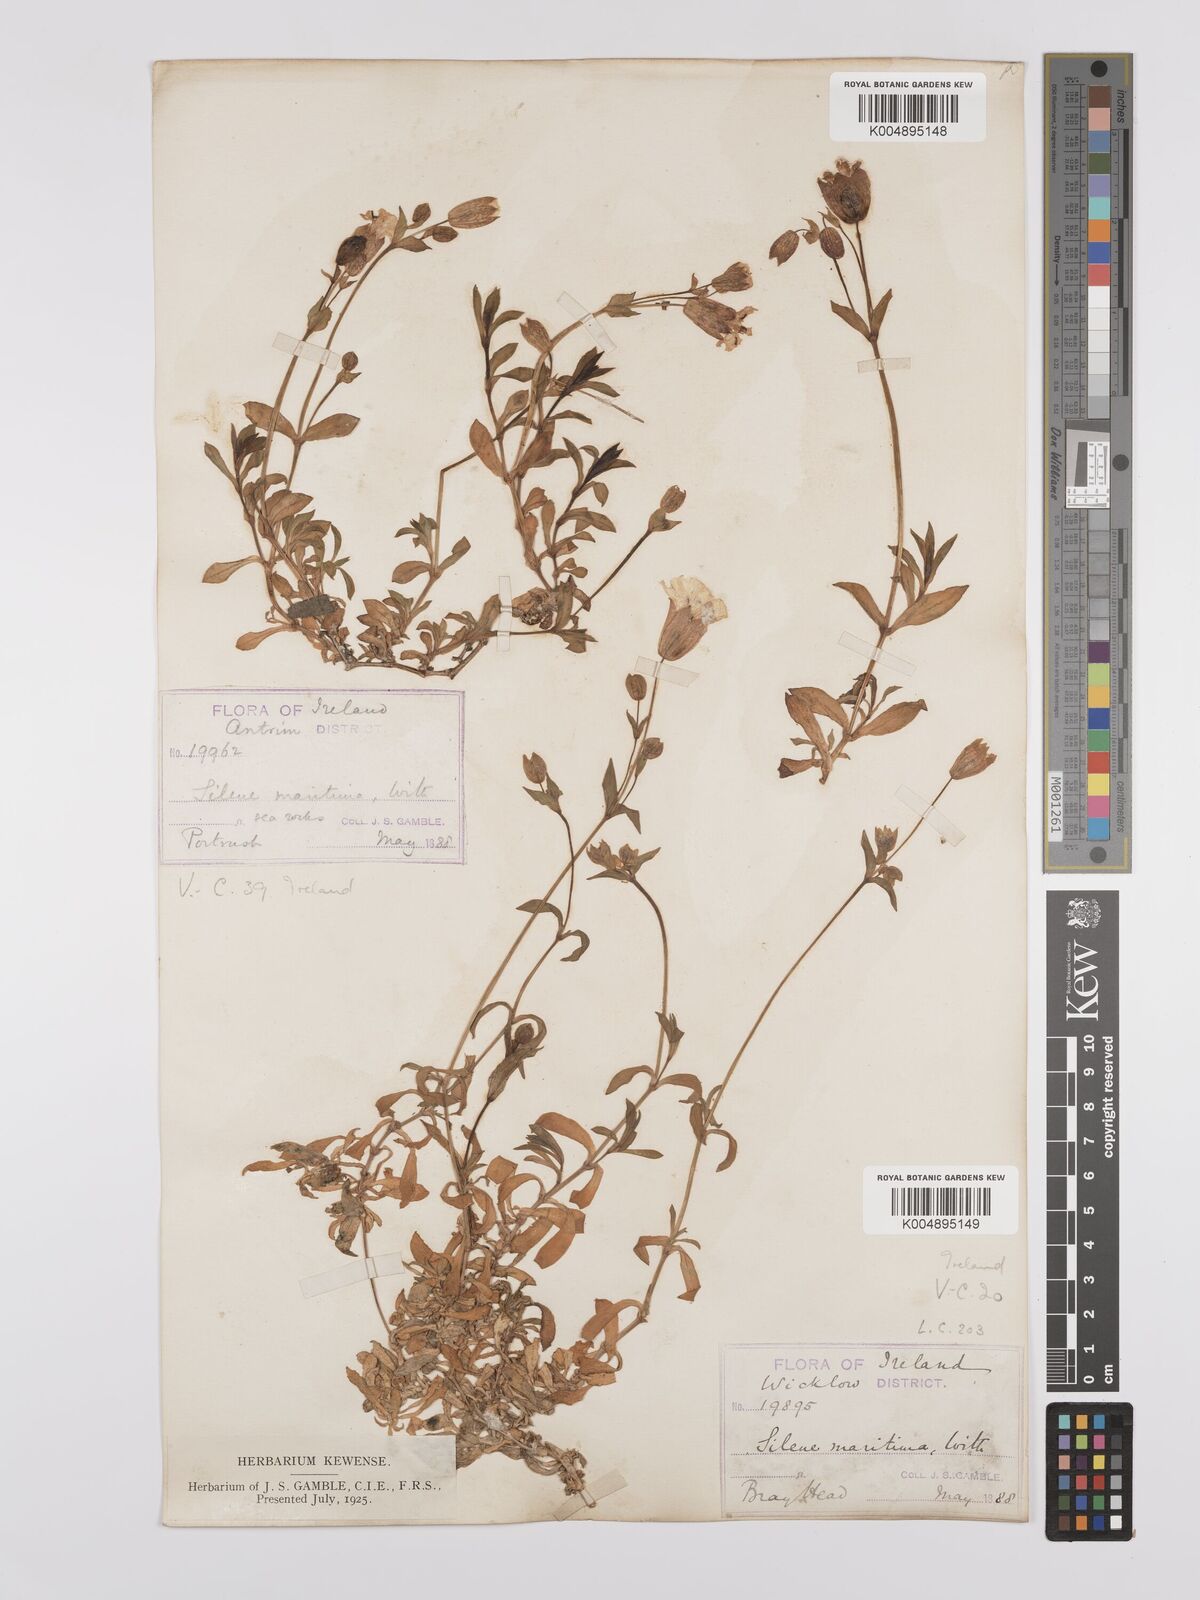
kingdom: Plantae
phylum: Tracheophyta
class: Magnoliopsida
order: Caryophyllales
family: Caryophyllaceae
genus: Silene
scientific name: Silene uniflora
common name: Sea campion
